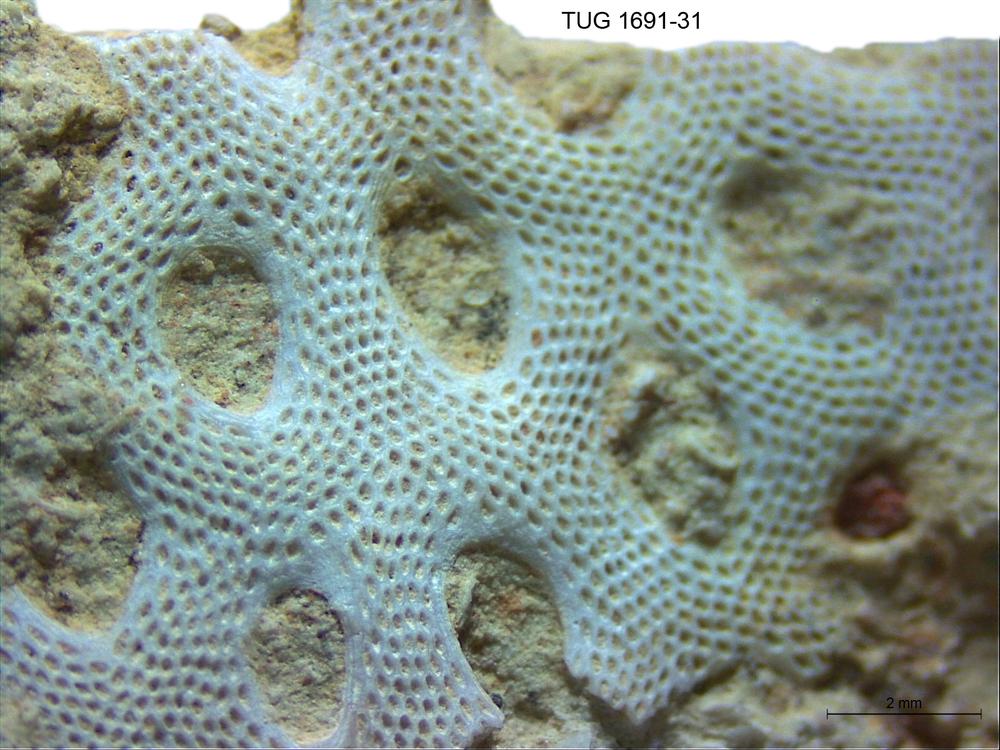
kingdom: Animalia
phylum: Bryozoa
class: Stenolaemata
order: Cryptostomida
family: Escharoporidae
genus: Oanduella
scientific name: Oanduella
